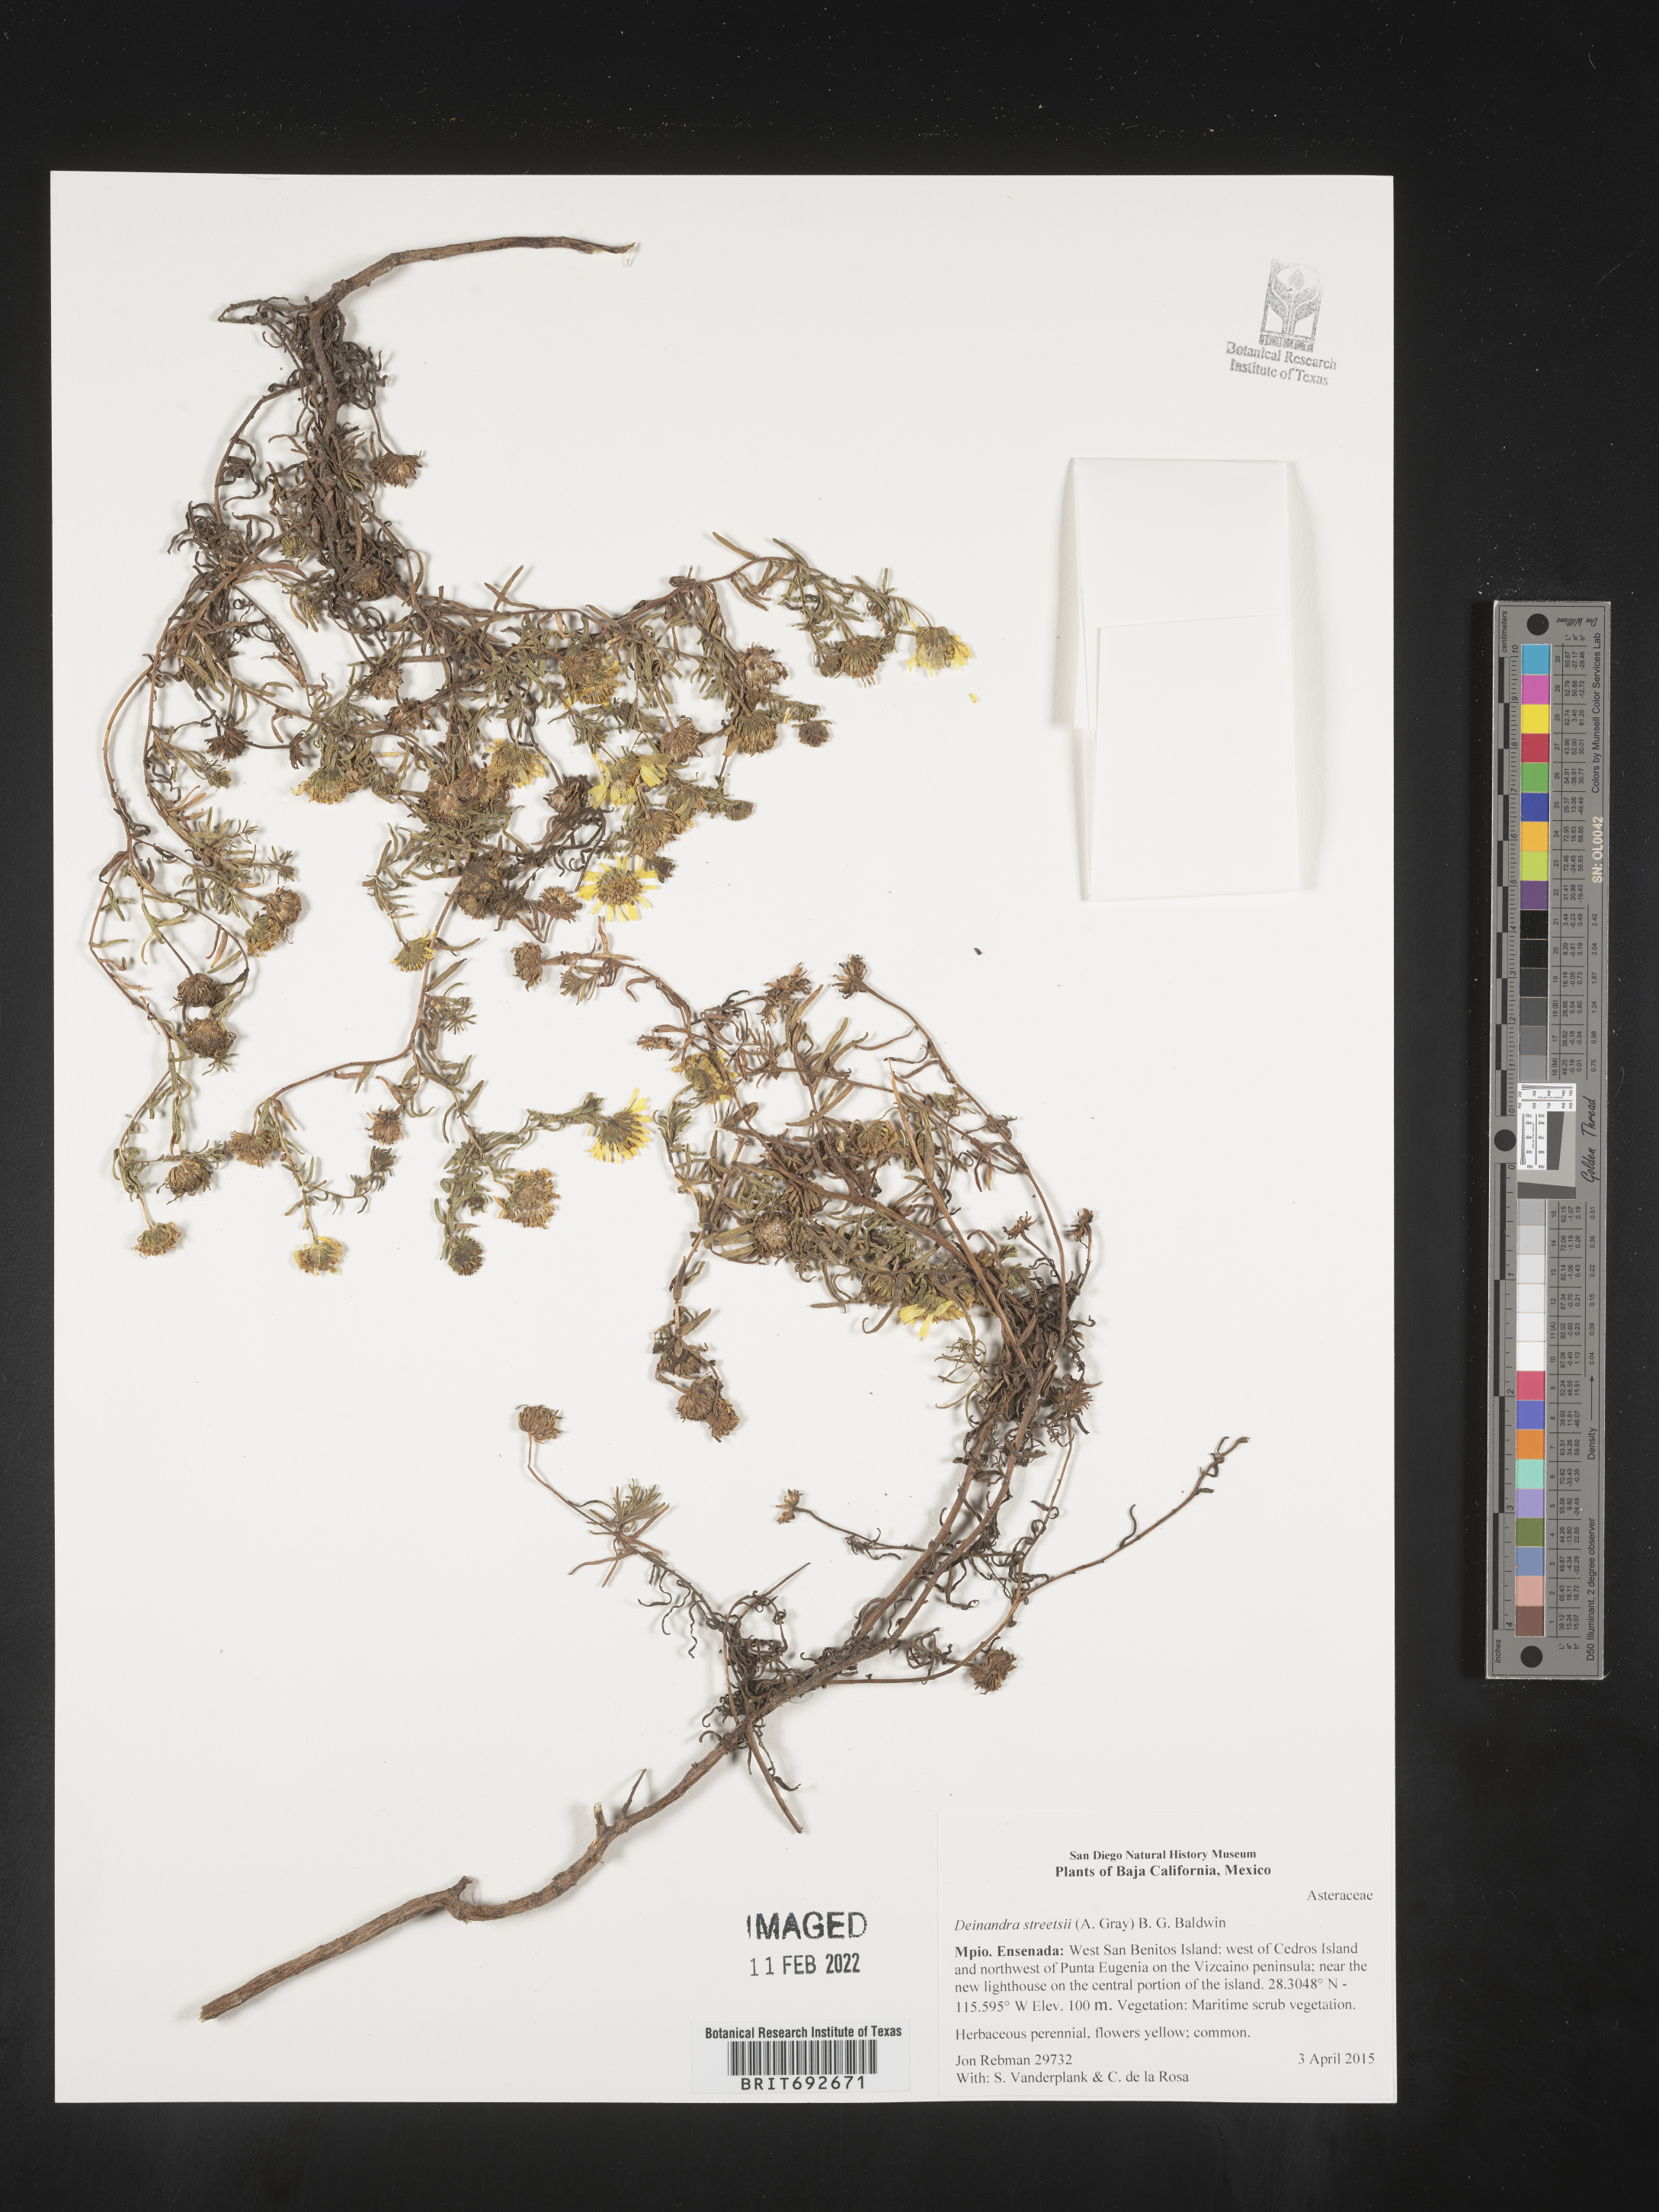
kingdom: Plantae
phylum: Tracheophyta
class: Magnoliopsida
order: Asterales
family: Asteraceae
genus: Deinandra
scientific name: Deinandra
